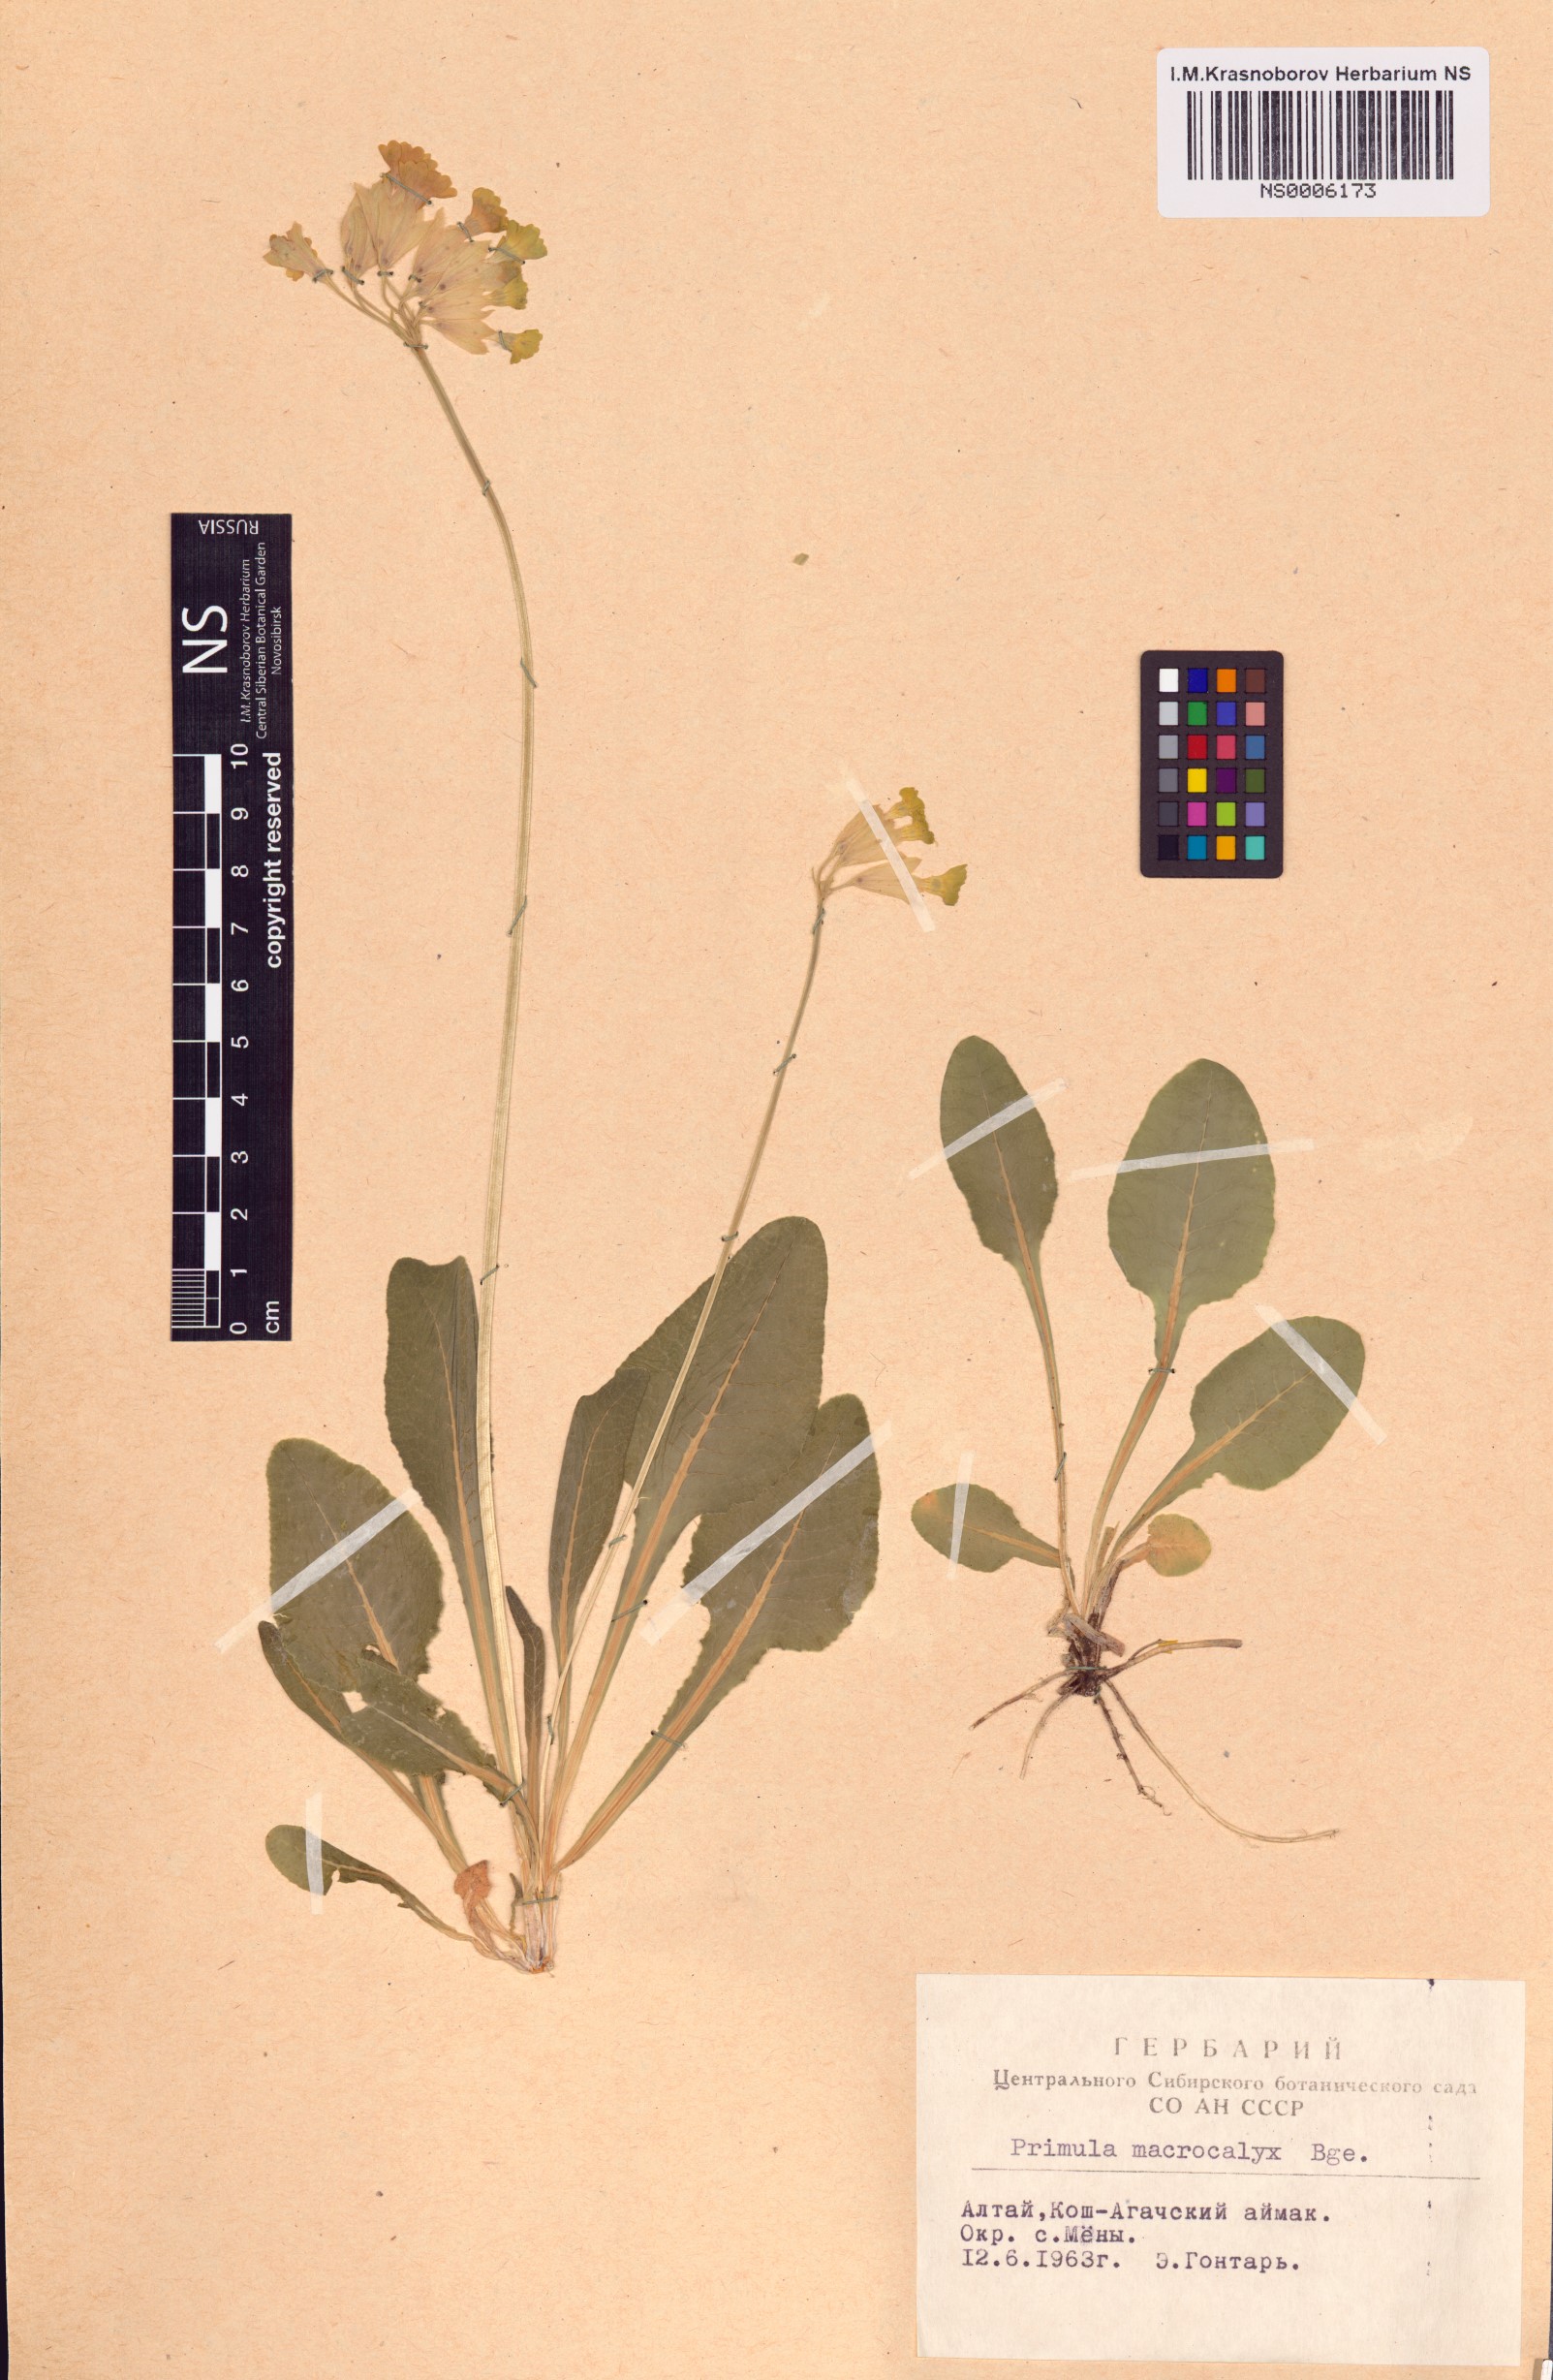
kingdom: Plantae
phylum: Tracheophyta
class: Magnoliopsida
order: Ericales
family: Primulaceae
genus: Primula
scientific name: Primula veris
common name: Cowslip
